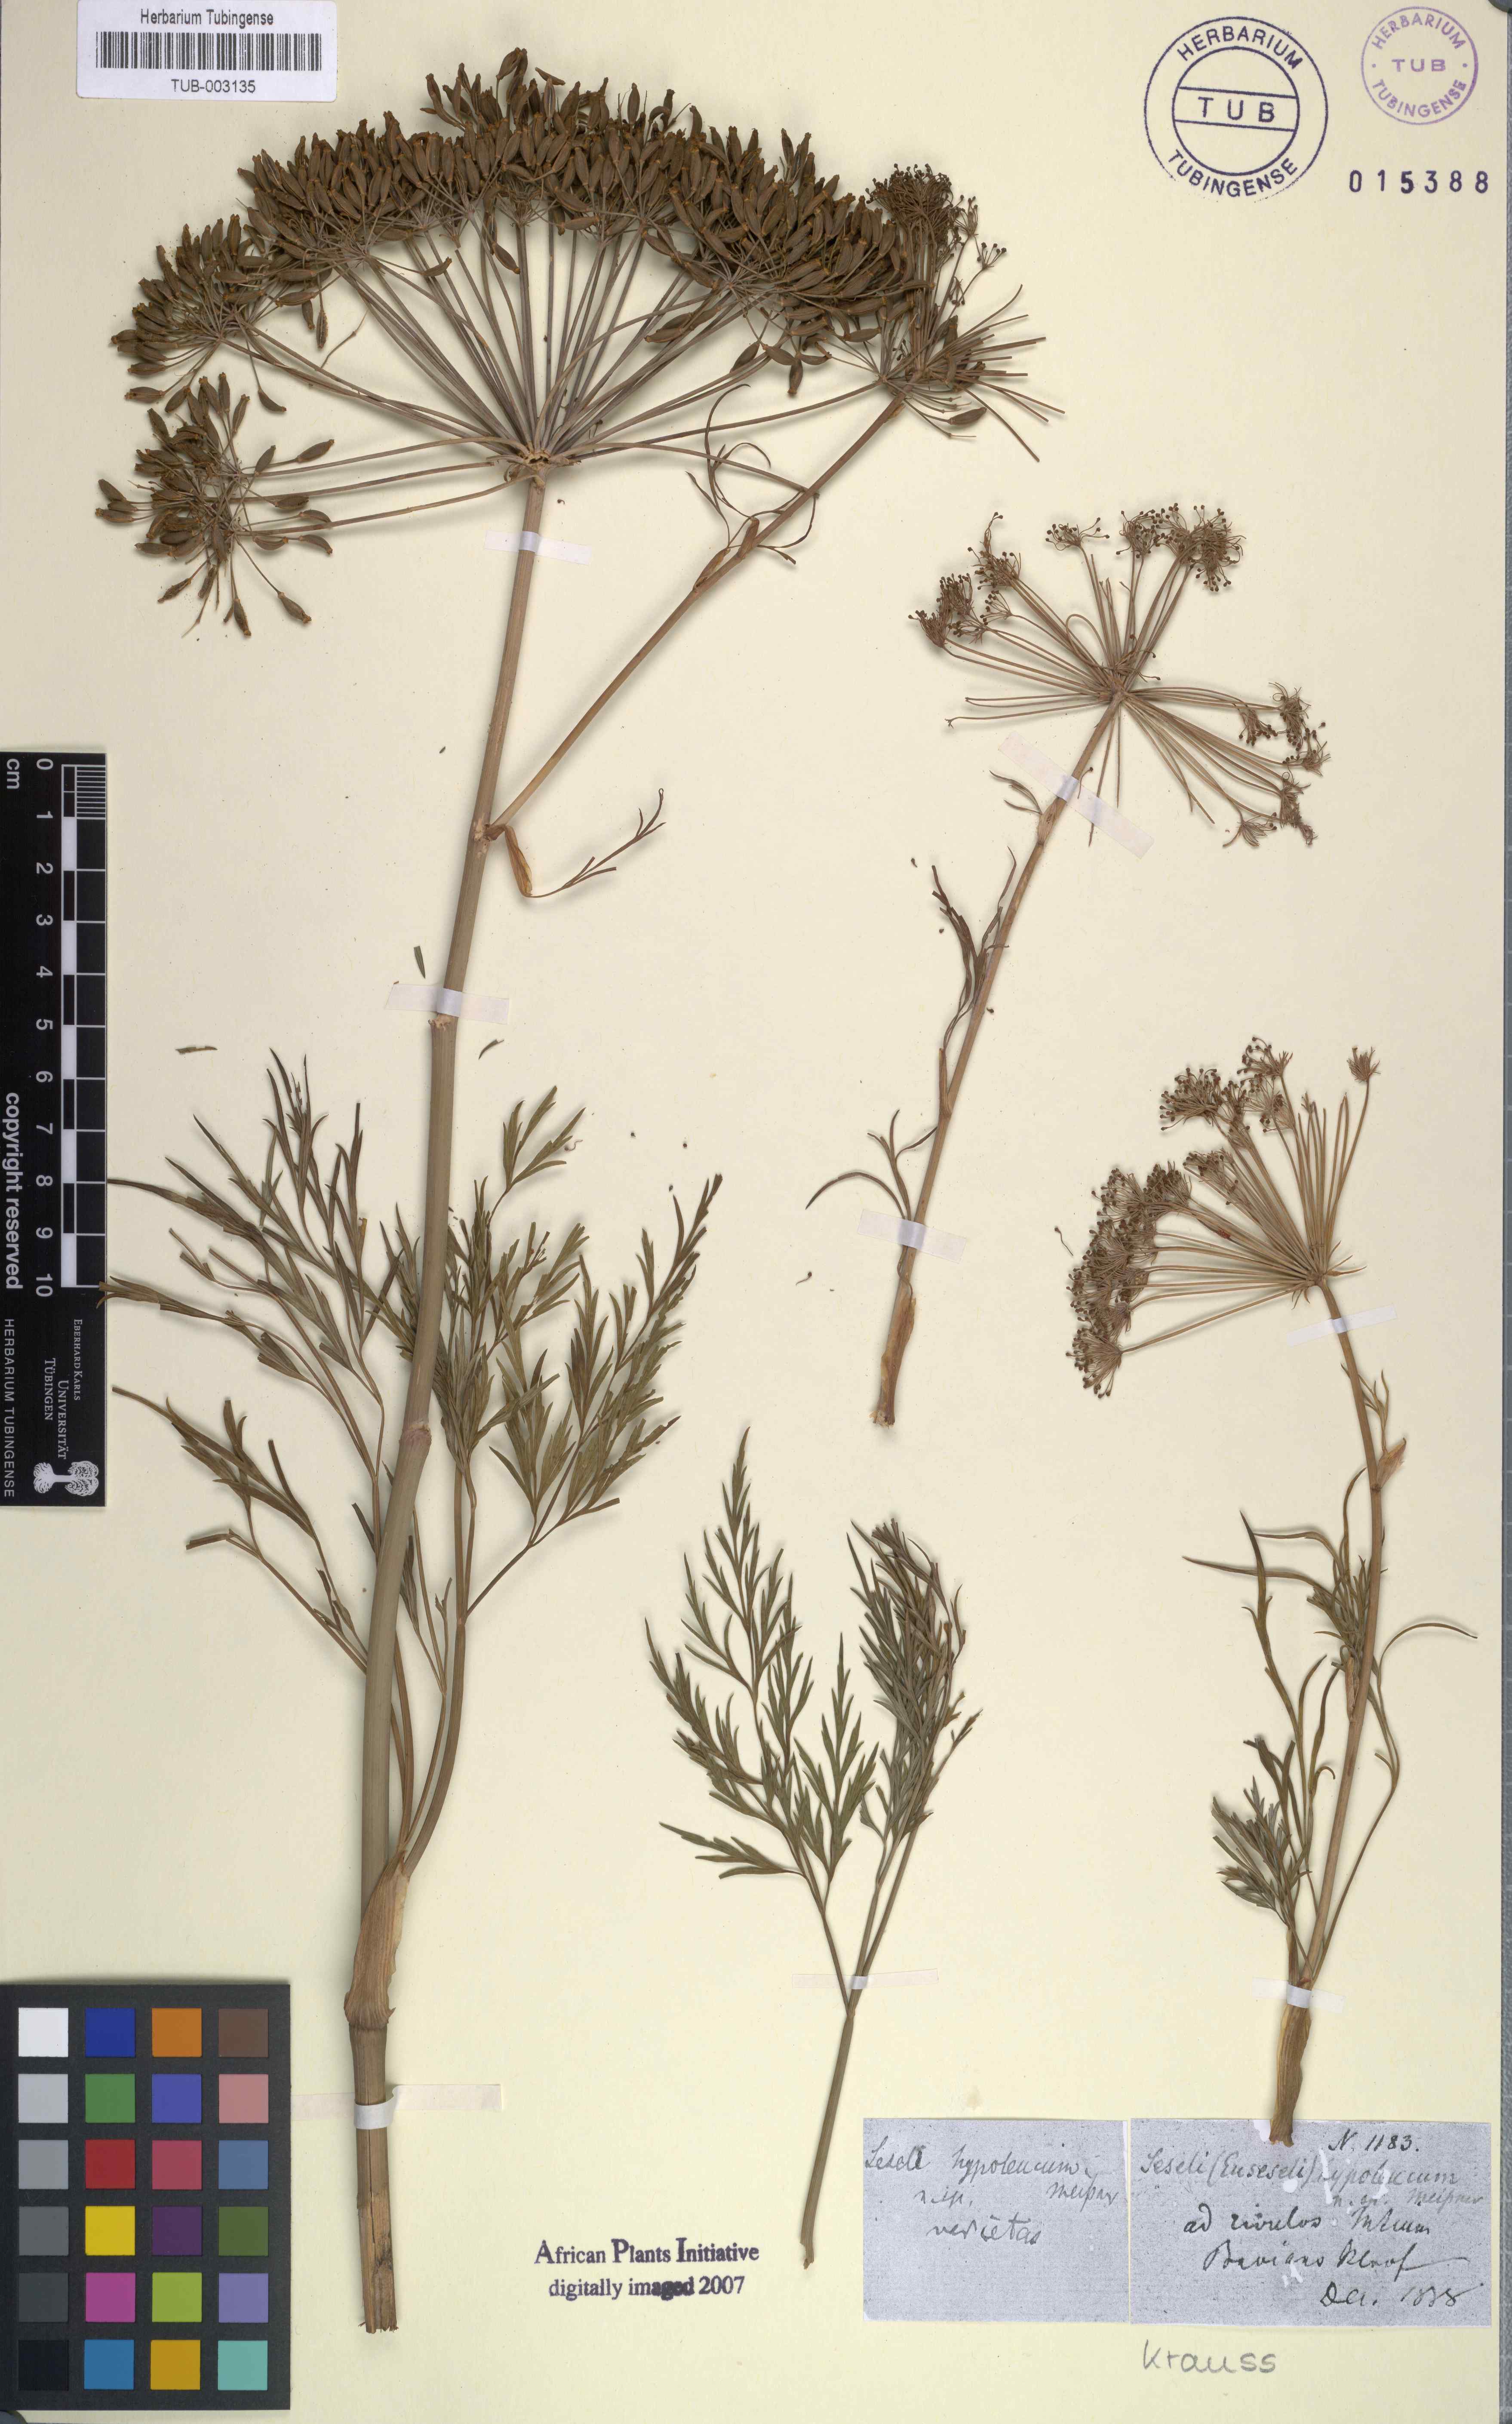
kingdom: Plantae
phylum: Tracheophyta
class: Magnoliopsida
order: Apiales
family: Apiaceae
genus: Notobubon
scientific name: Notobubon gummiferum
